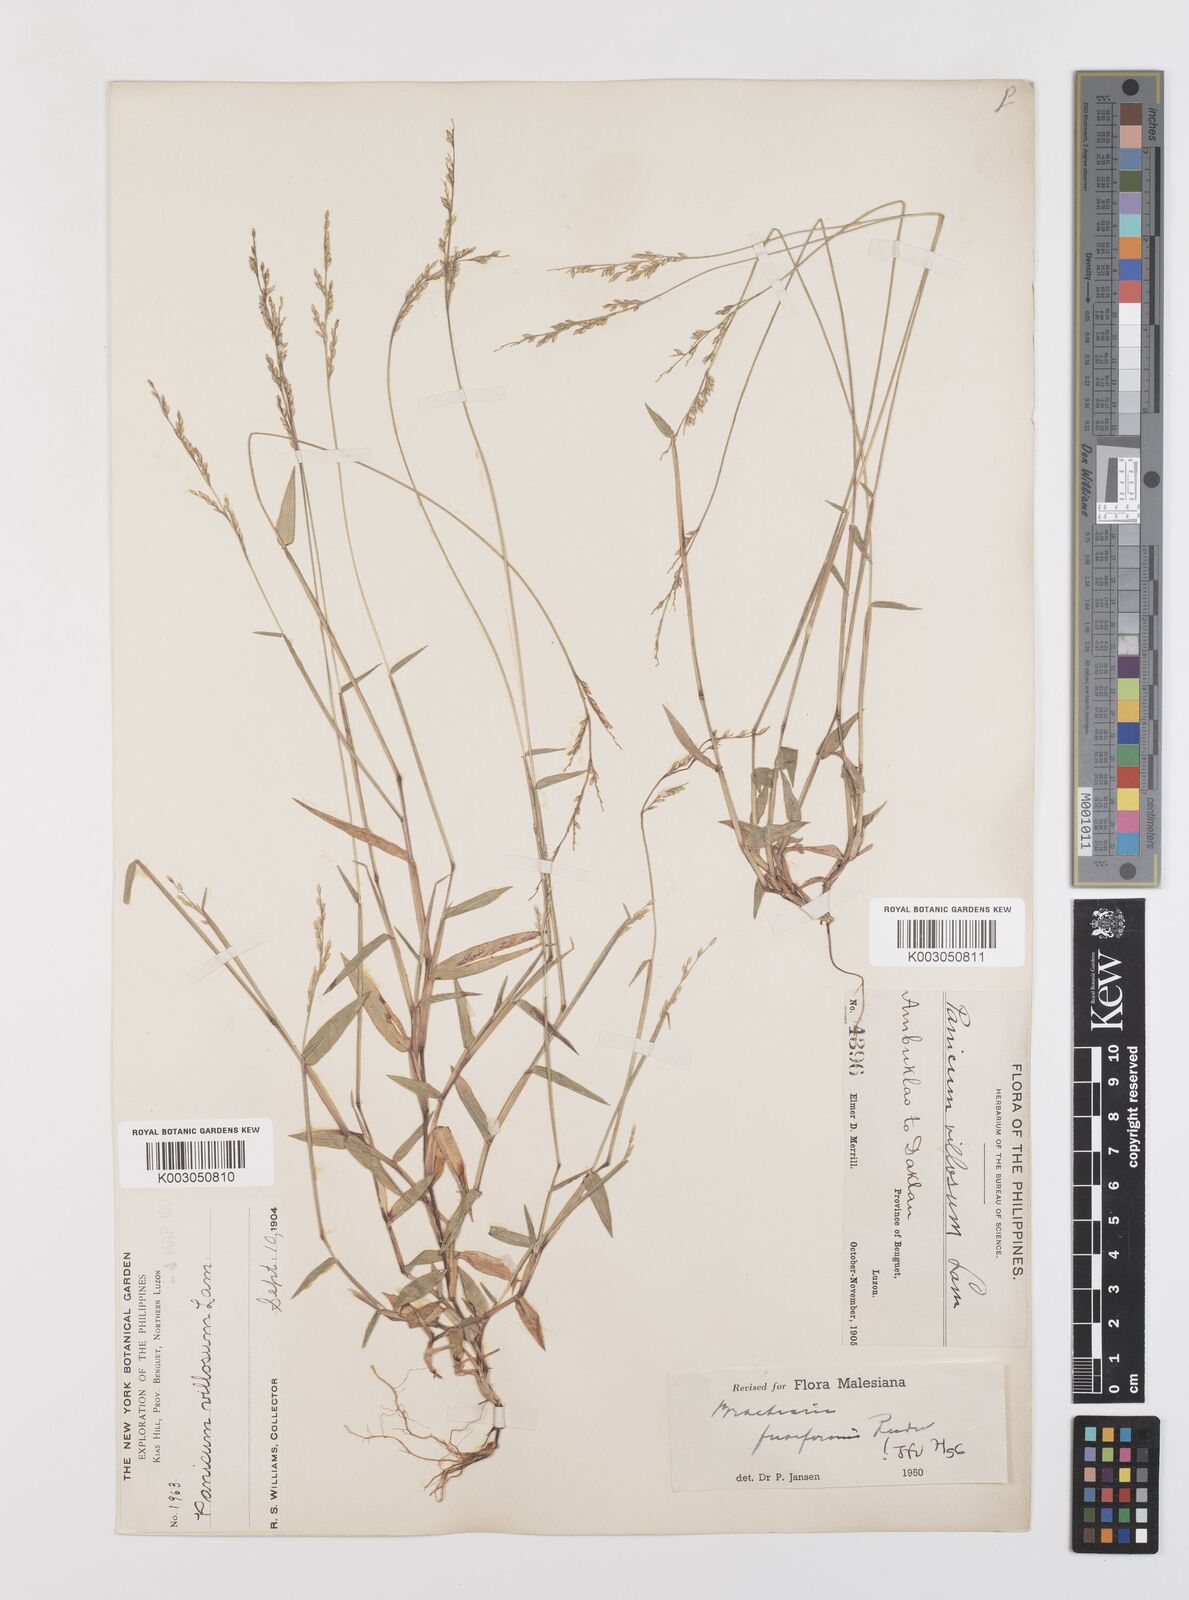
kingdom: Plantae
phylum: Tracheophyta
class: Liliopsida
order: Poales
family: Poaceae
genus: Urochloa
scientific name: Urochloa fusiformis
